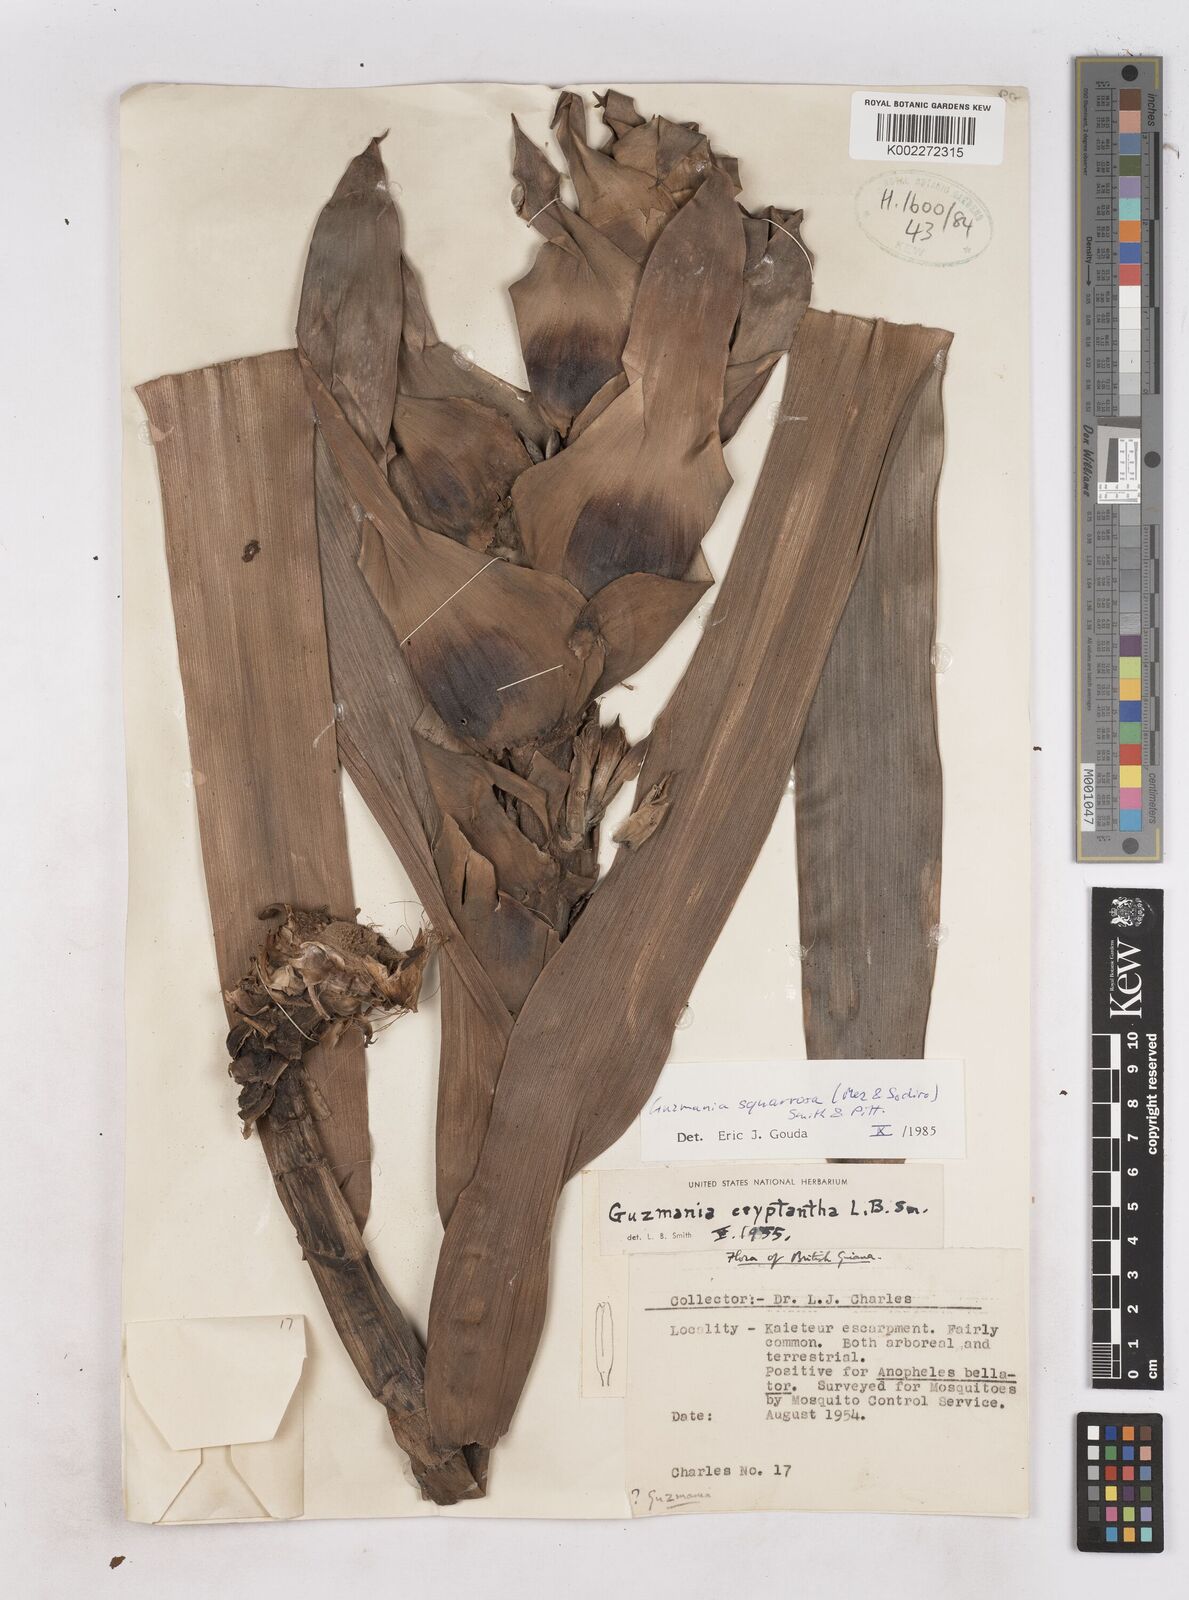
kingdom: Plantae
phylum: Tracheophyta
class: Liliopsida
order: Poales
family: Bromeliaceae
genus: Guzmania
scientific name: Guzmania squarrosa
